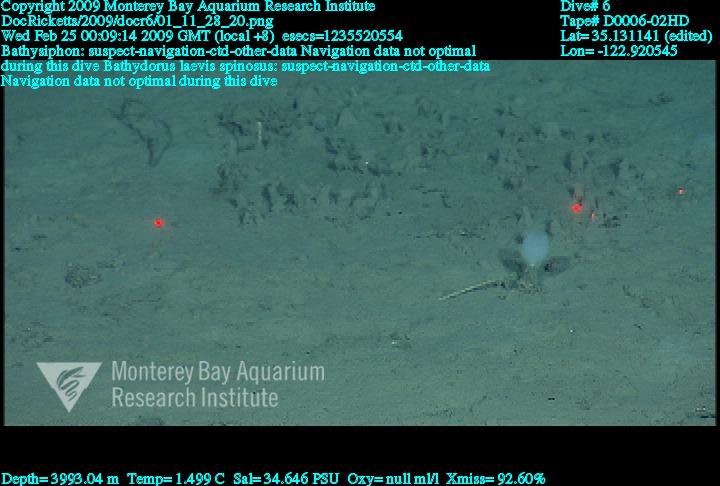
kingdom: Animalia
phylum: Porifera
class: Hexactinellida
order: Lyssacinosida
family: Rossellidae
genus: Bathydorus
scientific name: Bathydorus spinosus
